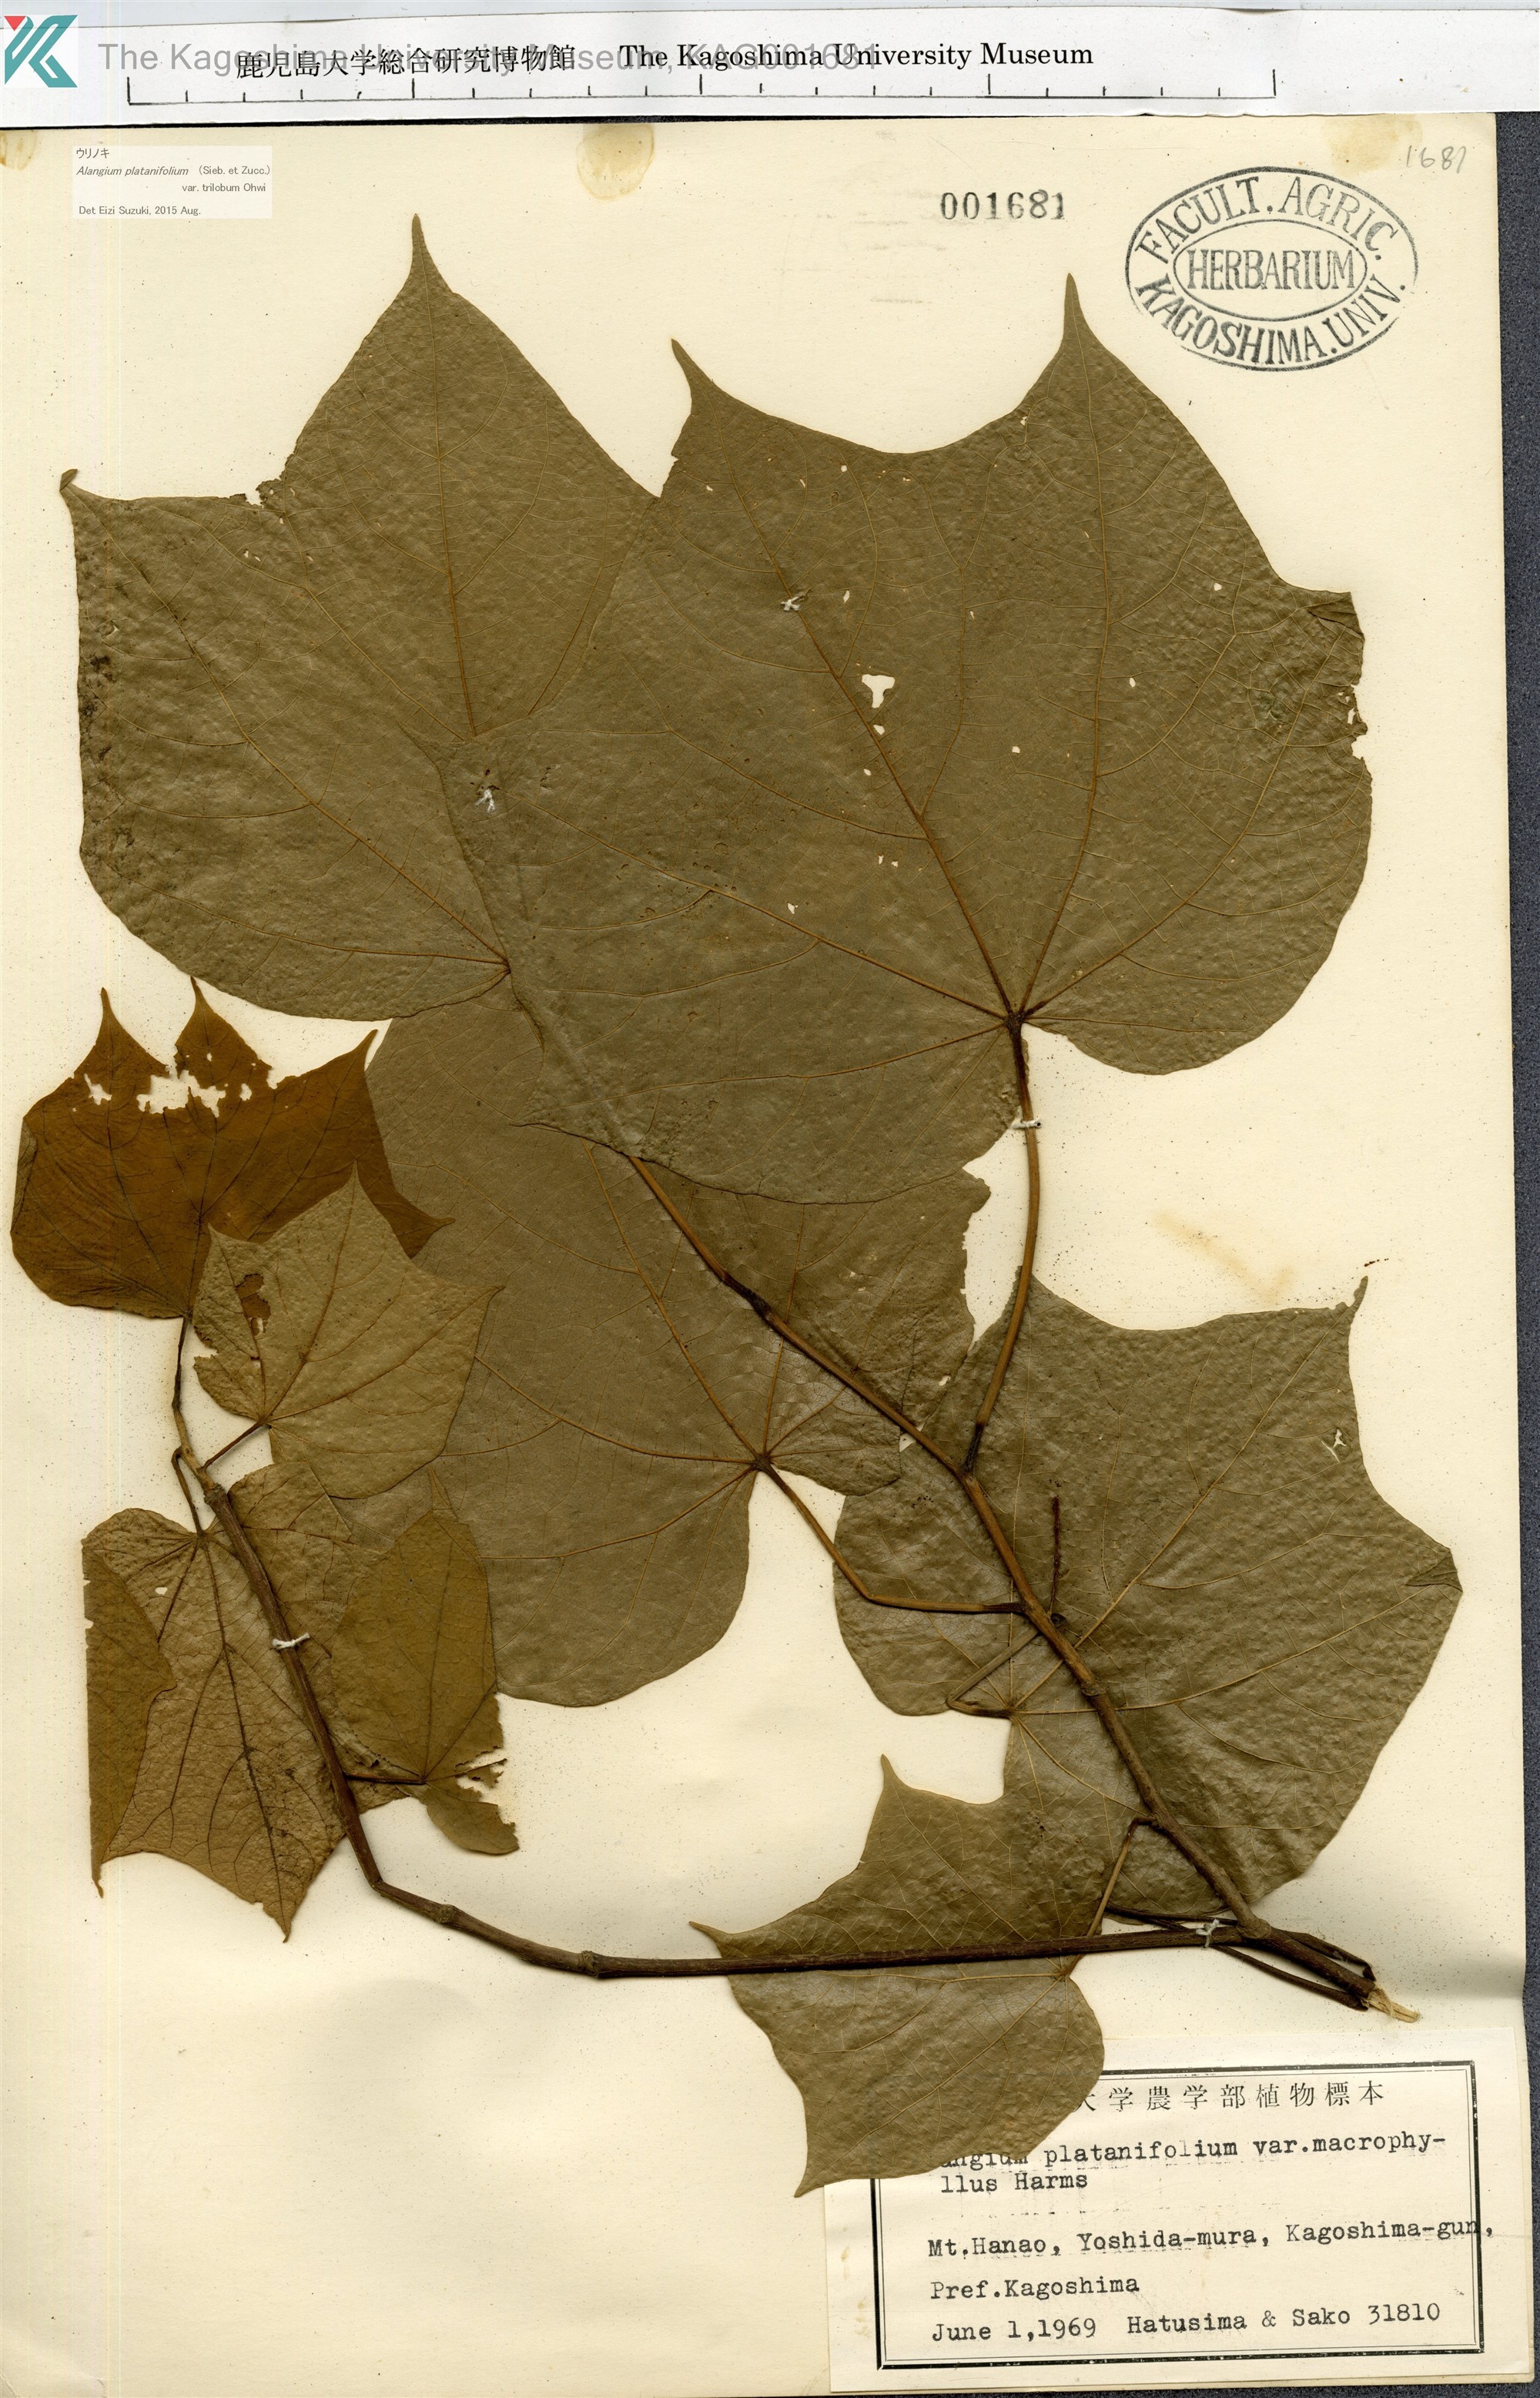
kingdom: Plantae
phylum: Tracheophyta
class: Magnoliopsida
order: Cornales
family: Cornaceae
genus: Alangium
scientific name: Alangium platanifolium
